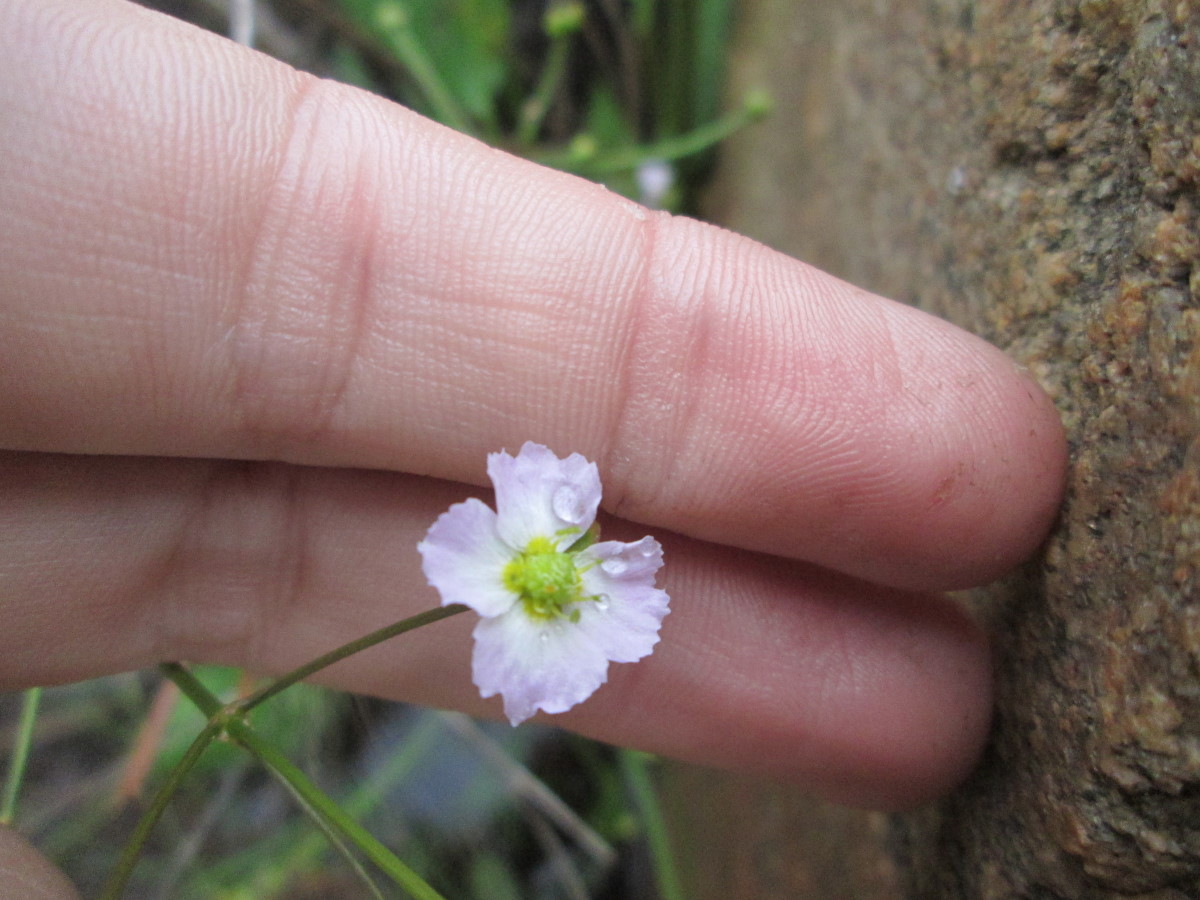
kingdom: Plantae
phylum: Tracheophyta
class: Liliopsida
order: Alismatales
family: Alismataceae
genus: Alisma
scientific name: Alisma plantago-aquatica
